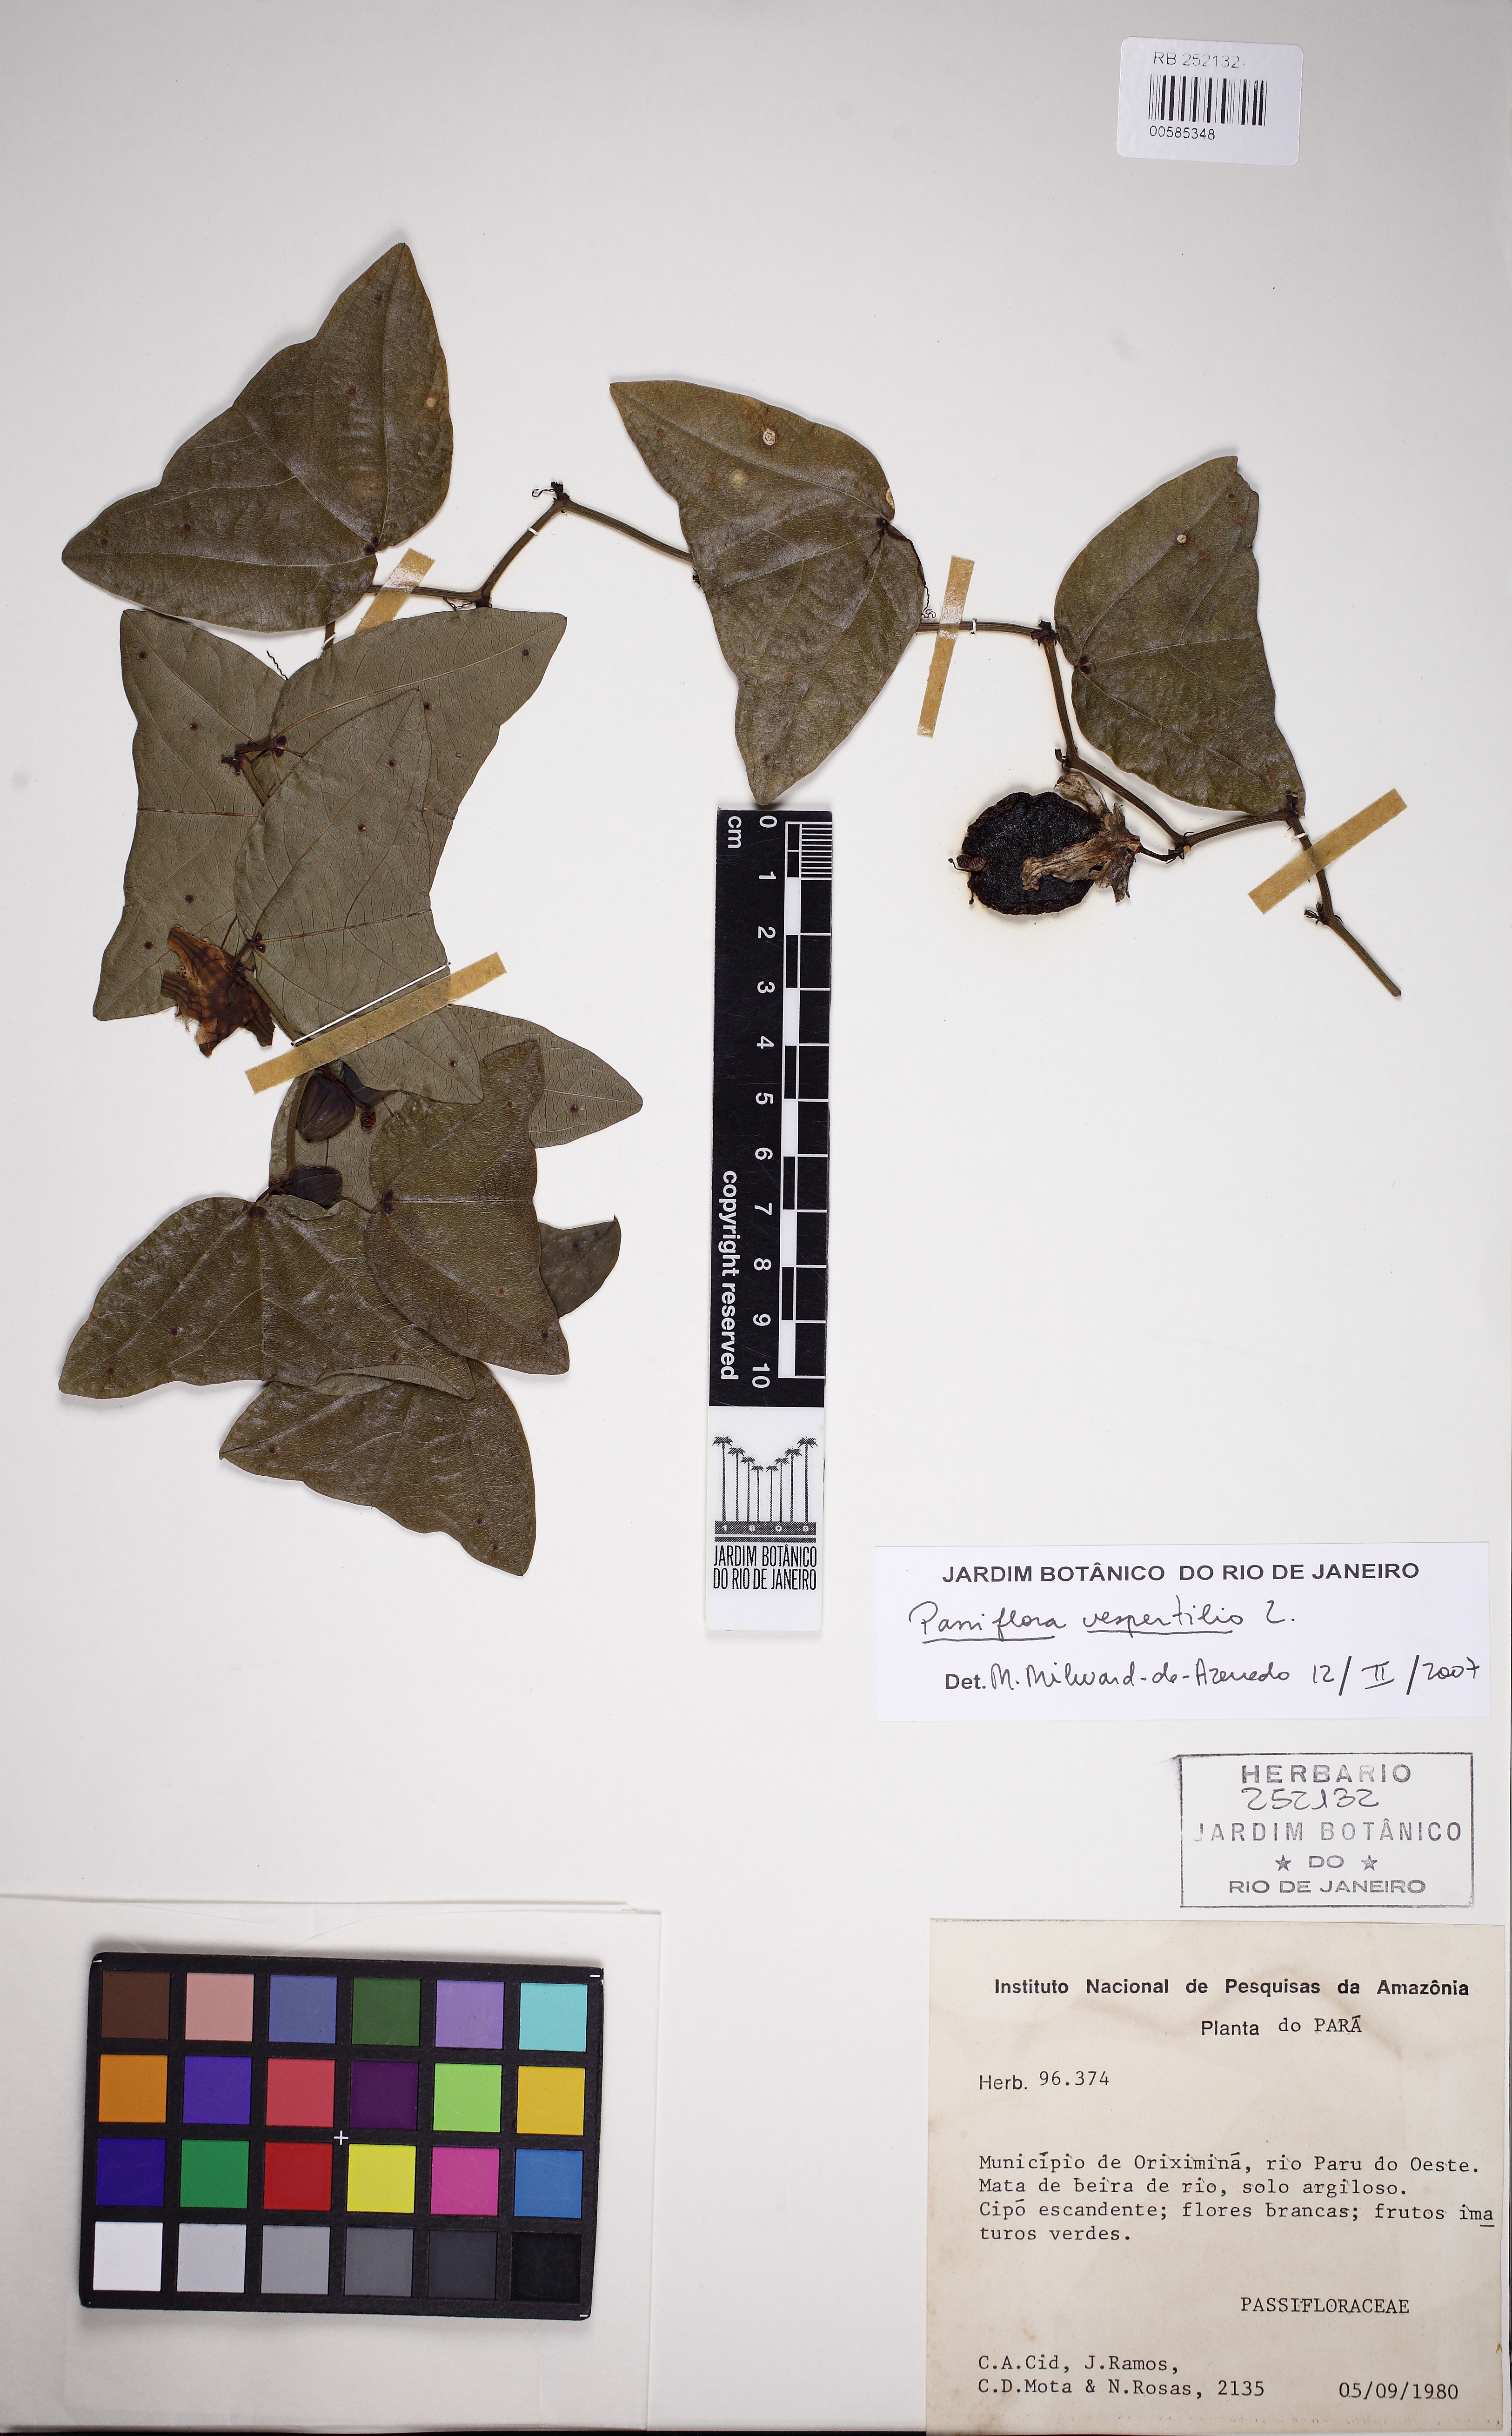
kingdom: Plantae
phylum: Tracheophyta
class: Magnoliopsida
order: Malpighiales
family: Passifloraceae
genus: Passiflora
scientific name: Passiflora vespertilio
